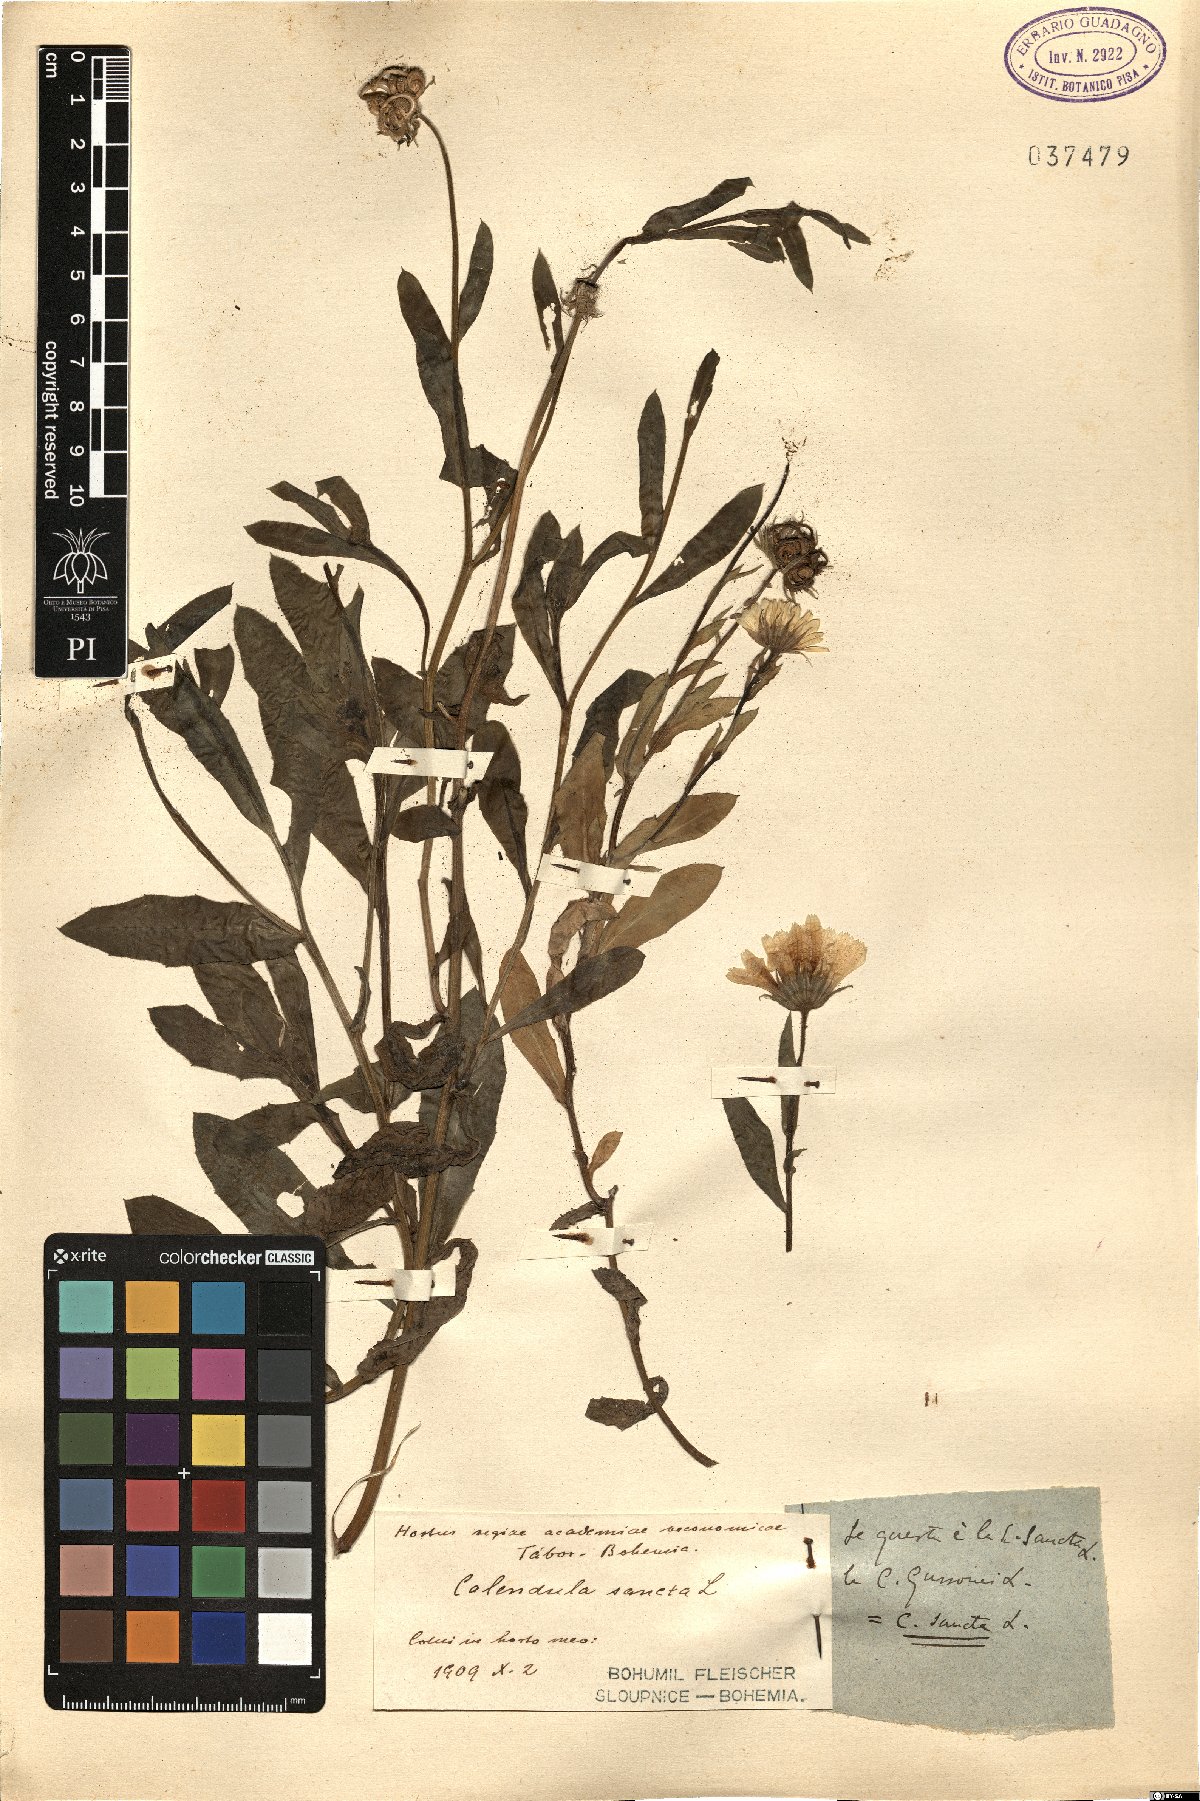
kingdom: Plantae
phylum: Tracheophyta
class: Magnoliopsida
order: Asterales
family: Asteraceae
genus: Calendula
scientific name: Calendula arvensis
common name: Field marigold
